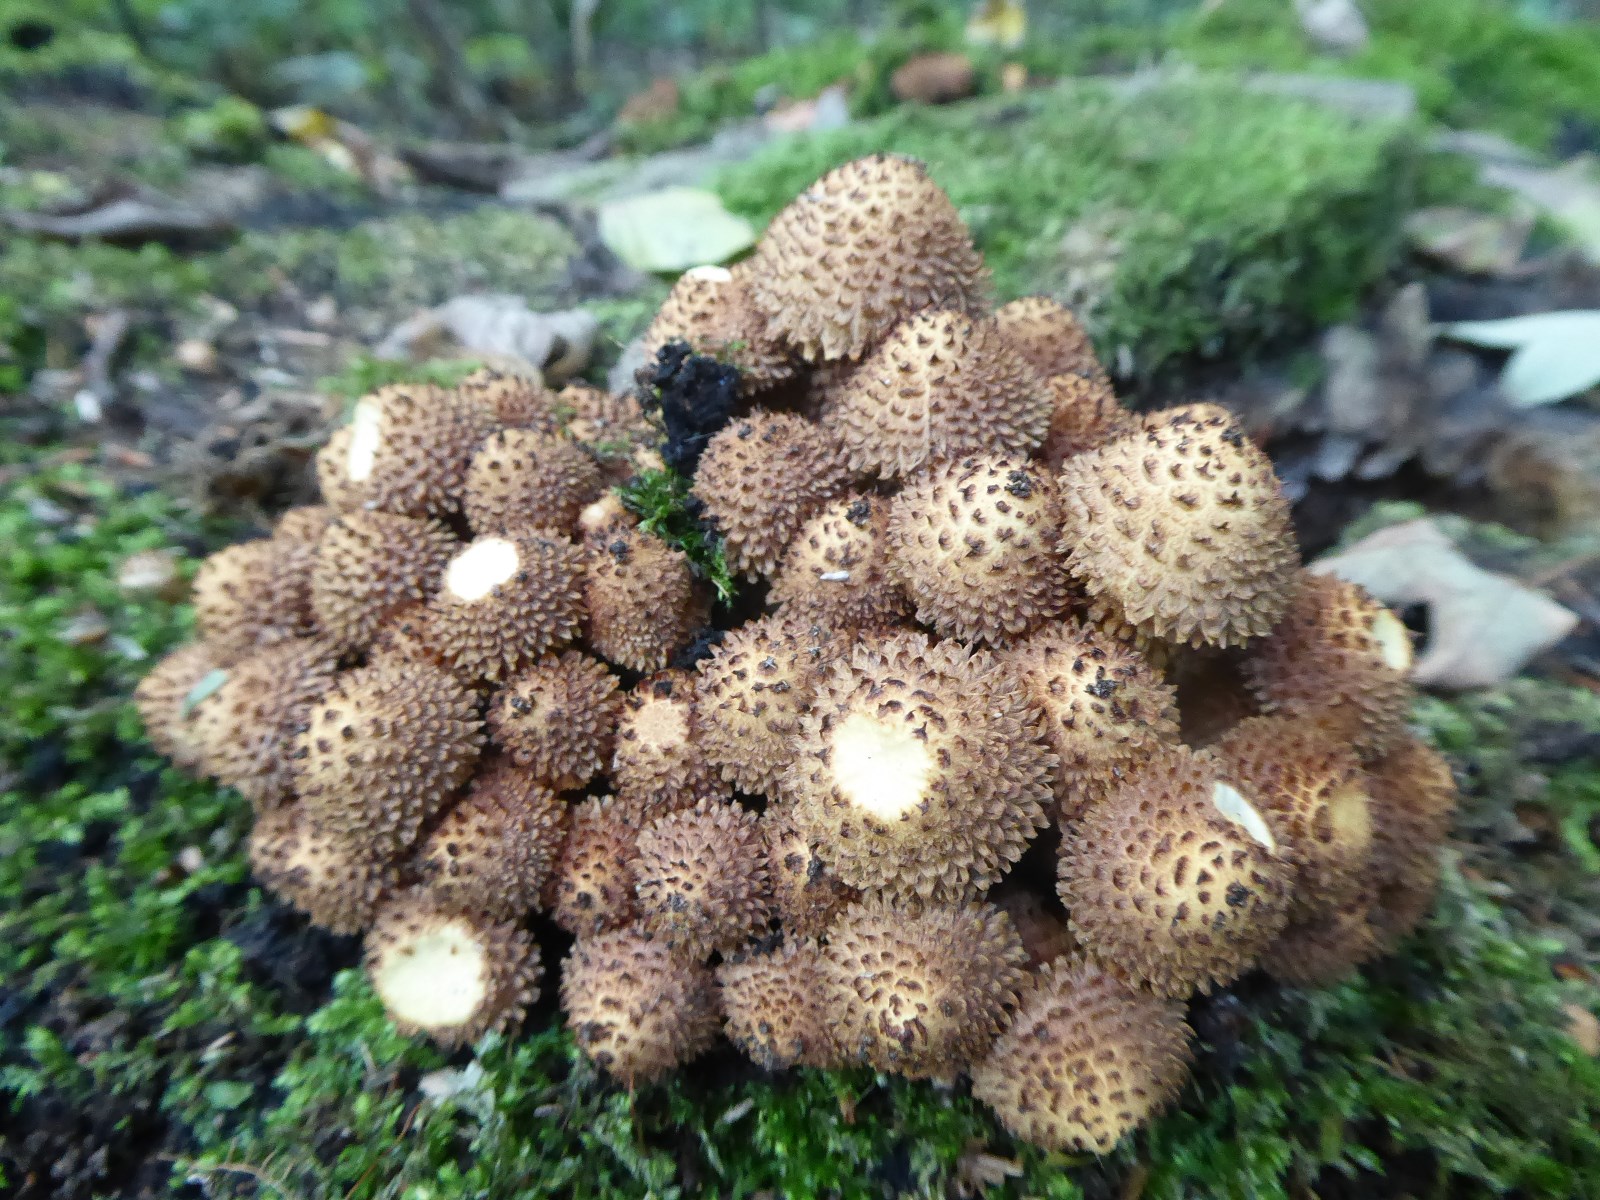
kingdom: Fungi
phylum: Basidiomycota
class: Agaricomycetes
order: Agaricales
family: Strophariaceae
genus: Pholiota
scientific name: Pholiota squarrosa
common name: krumskællet skælhat
